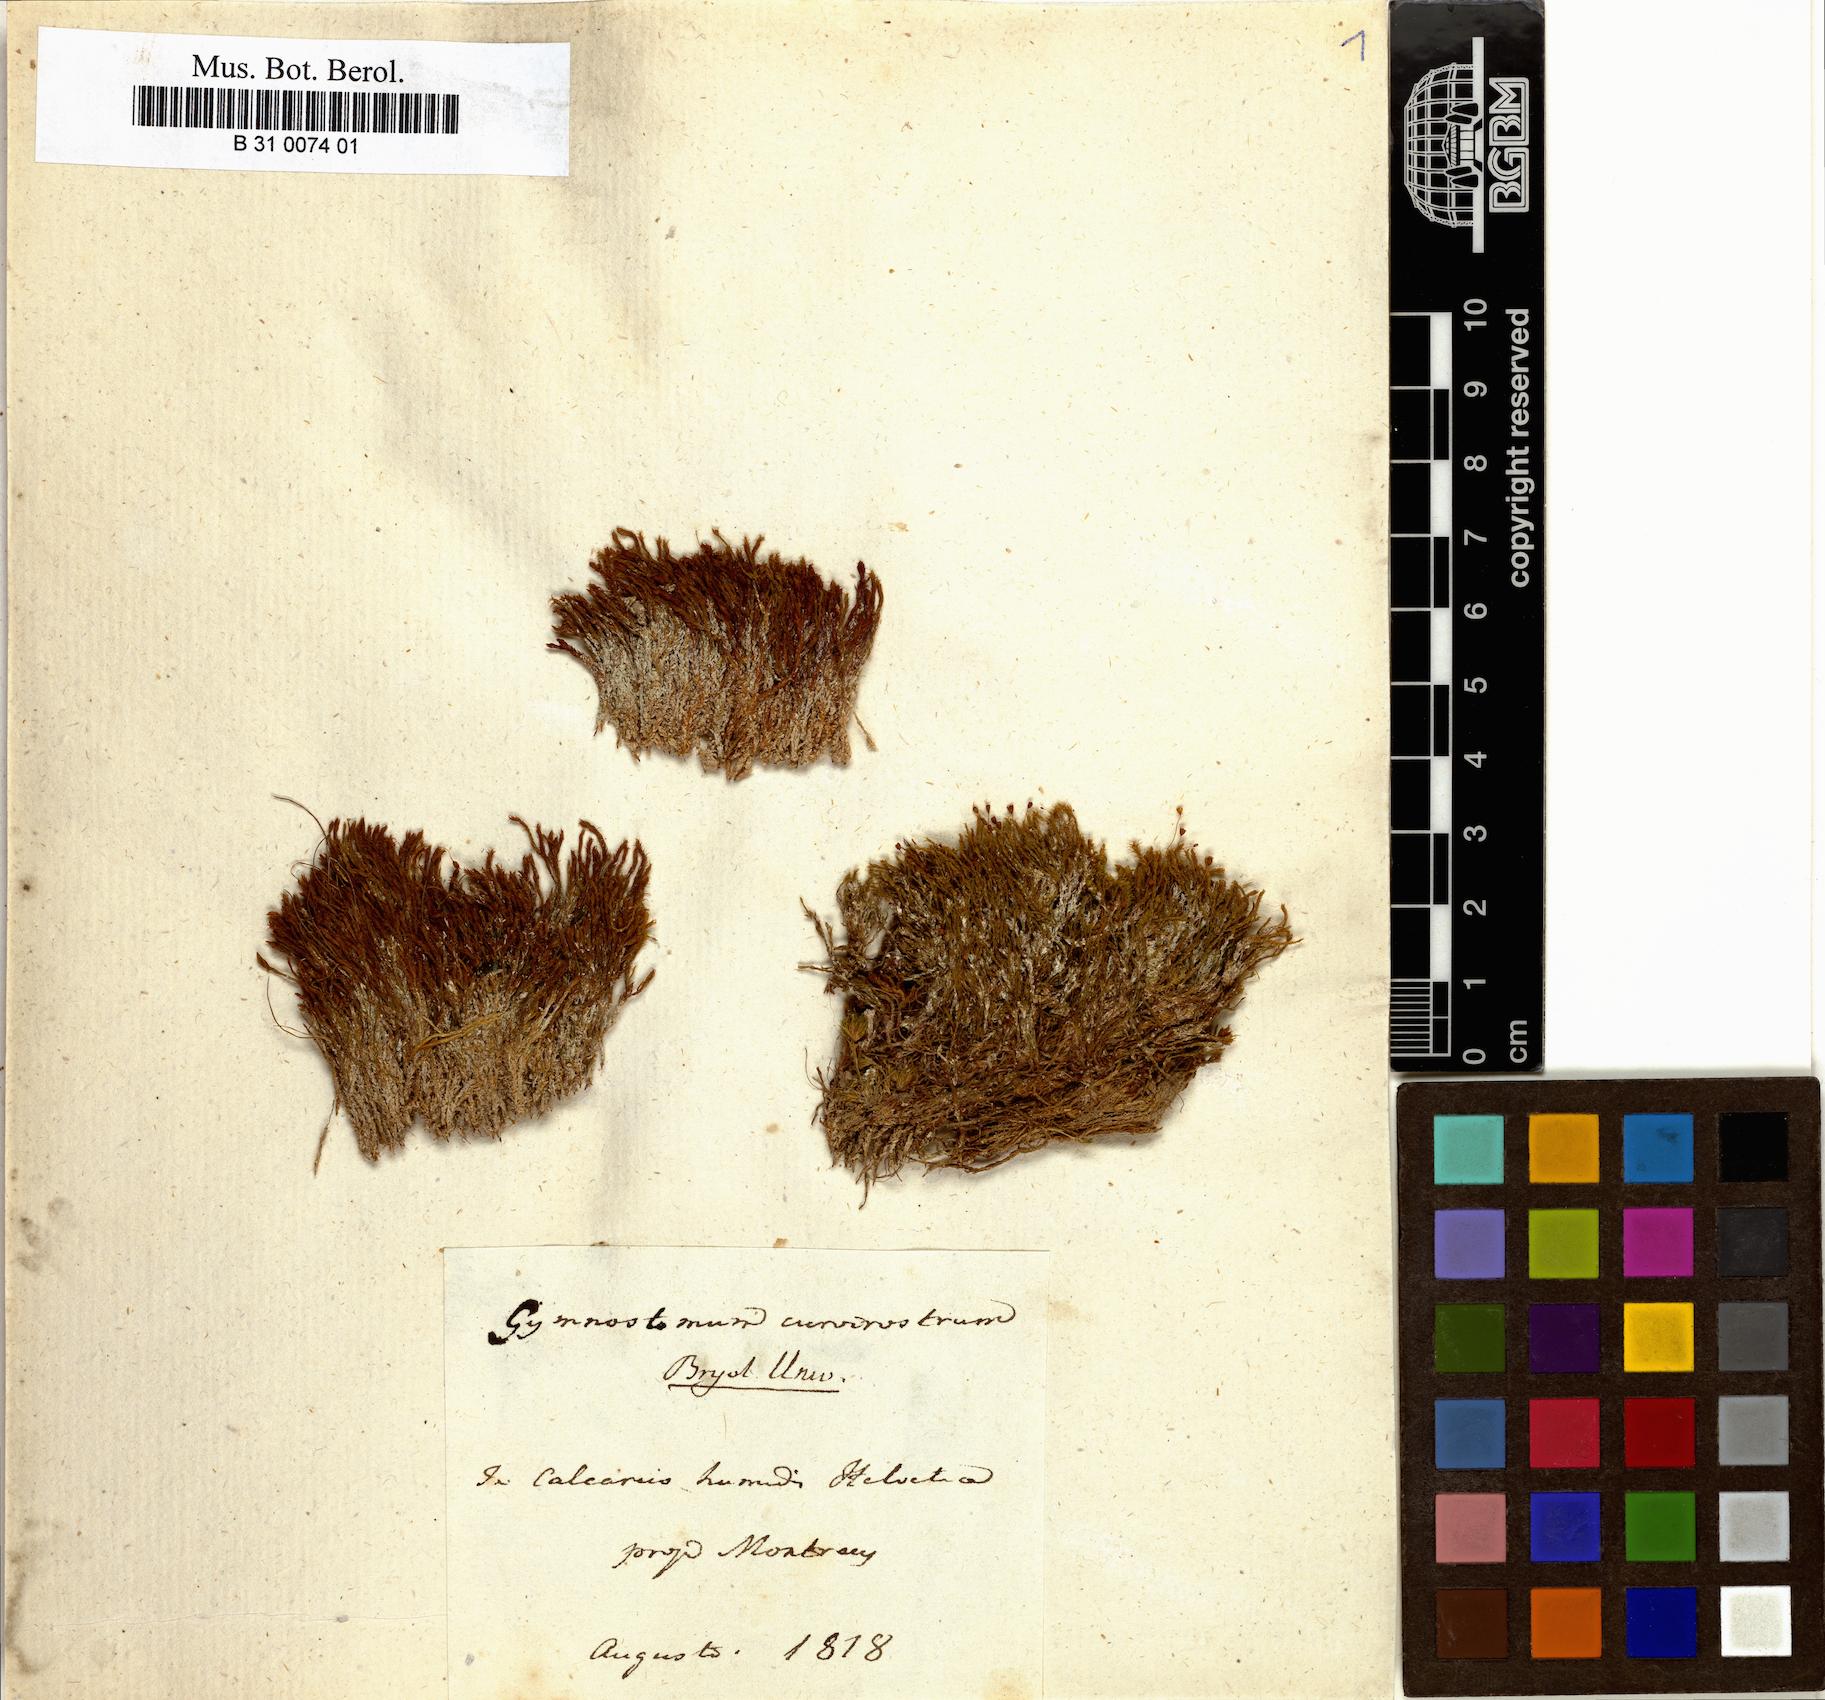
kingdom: Plantae
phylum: Bryophyta
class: Bryopsida
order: Pottiales
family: Pottiaceae
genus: Hymenostylium
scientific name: Hymenostylium recurvirostrum
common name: Hook-beak tufa-moss
